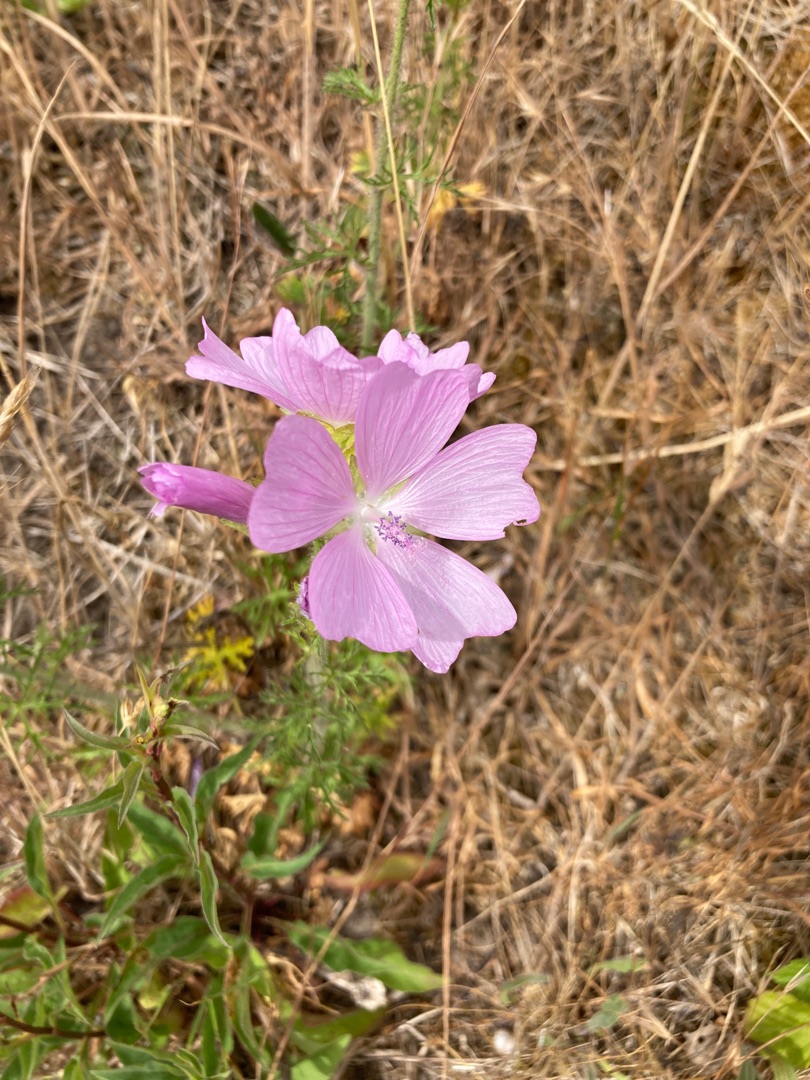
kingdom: Plantae
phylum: Tracheophyta
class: Magnoliopsida
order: Malvales
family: Malvaceae
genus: Malva
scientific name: Malva moschata
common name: Moskus-katost
